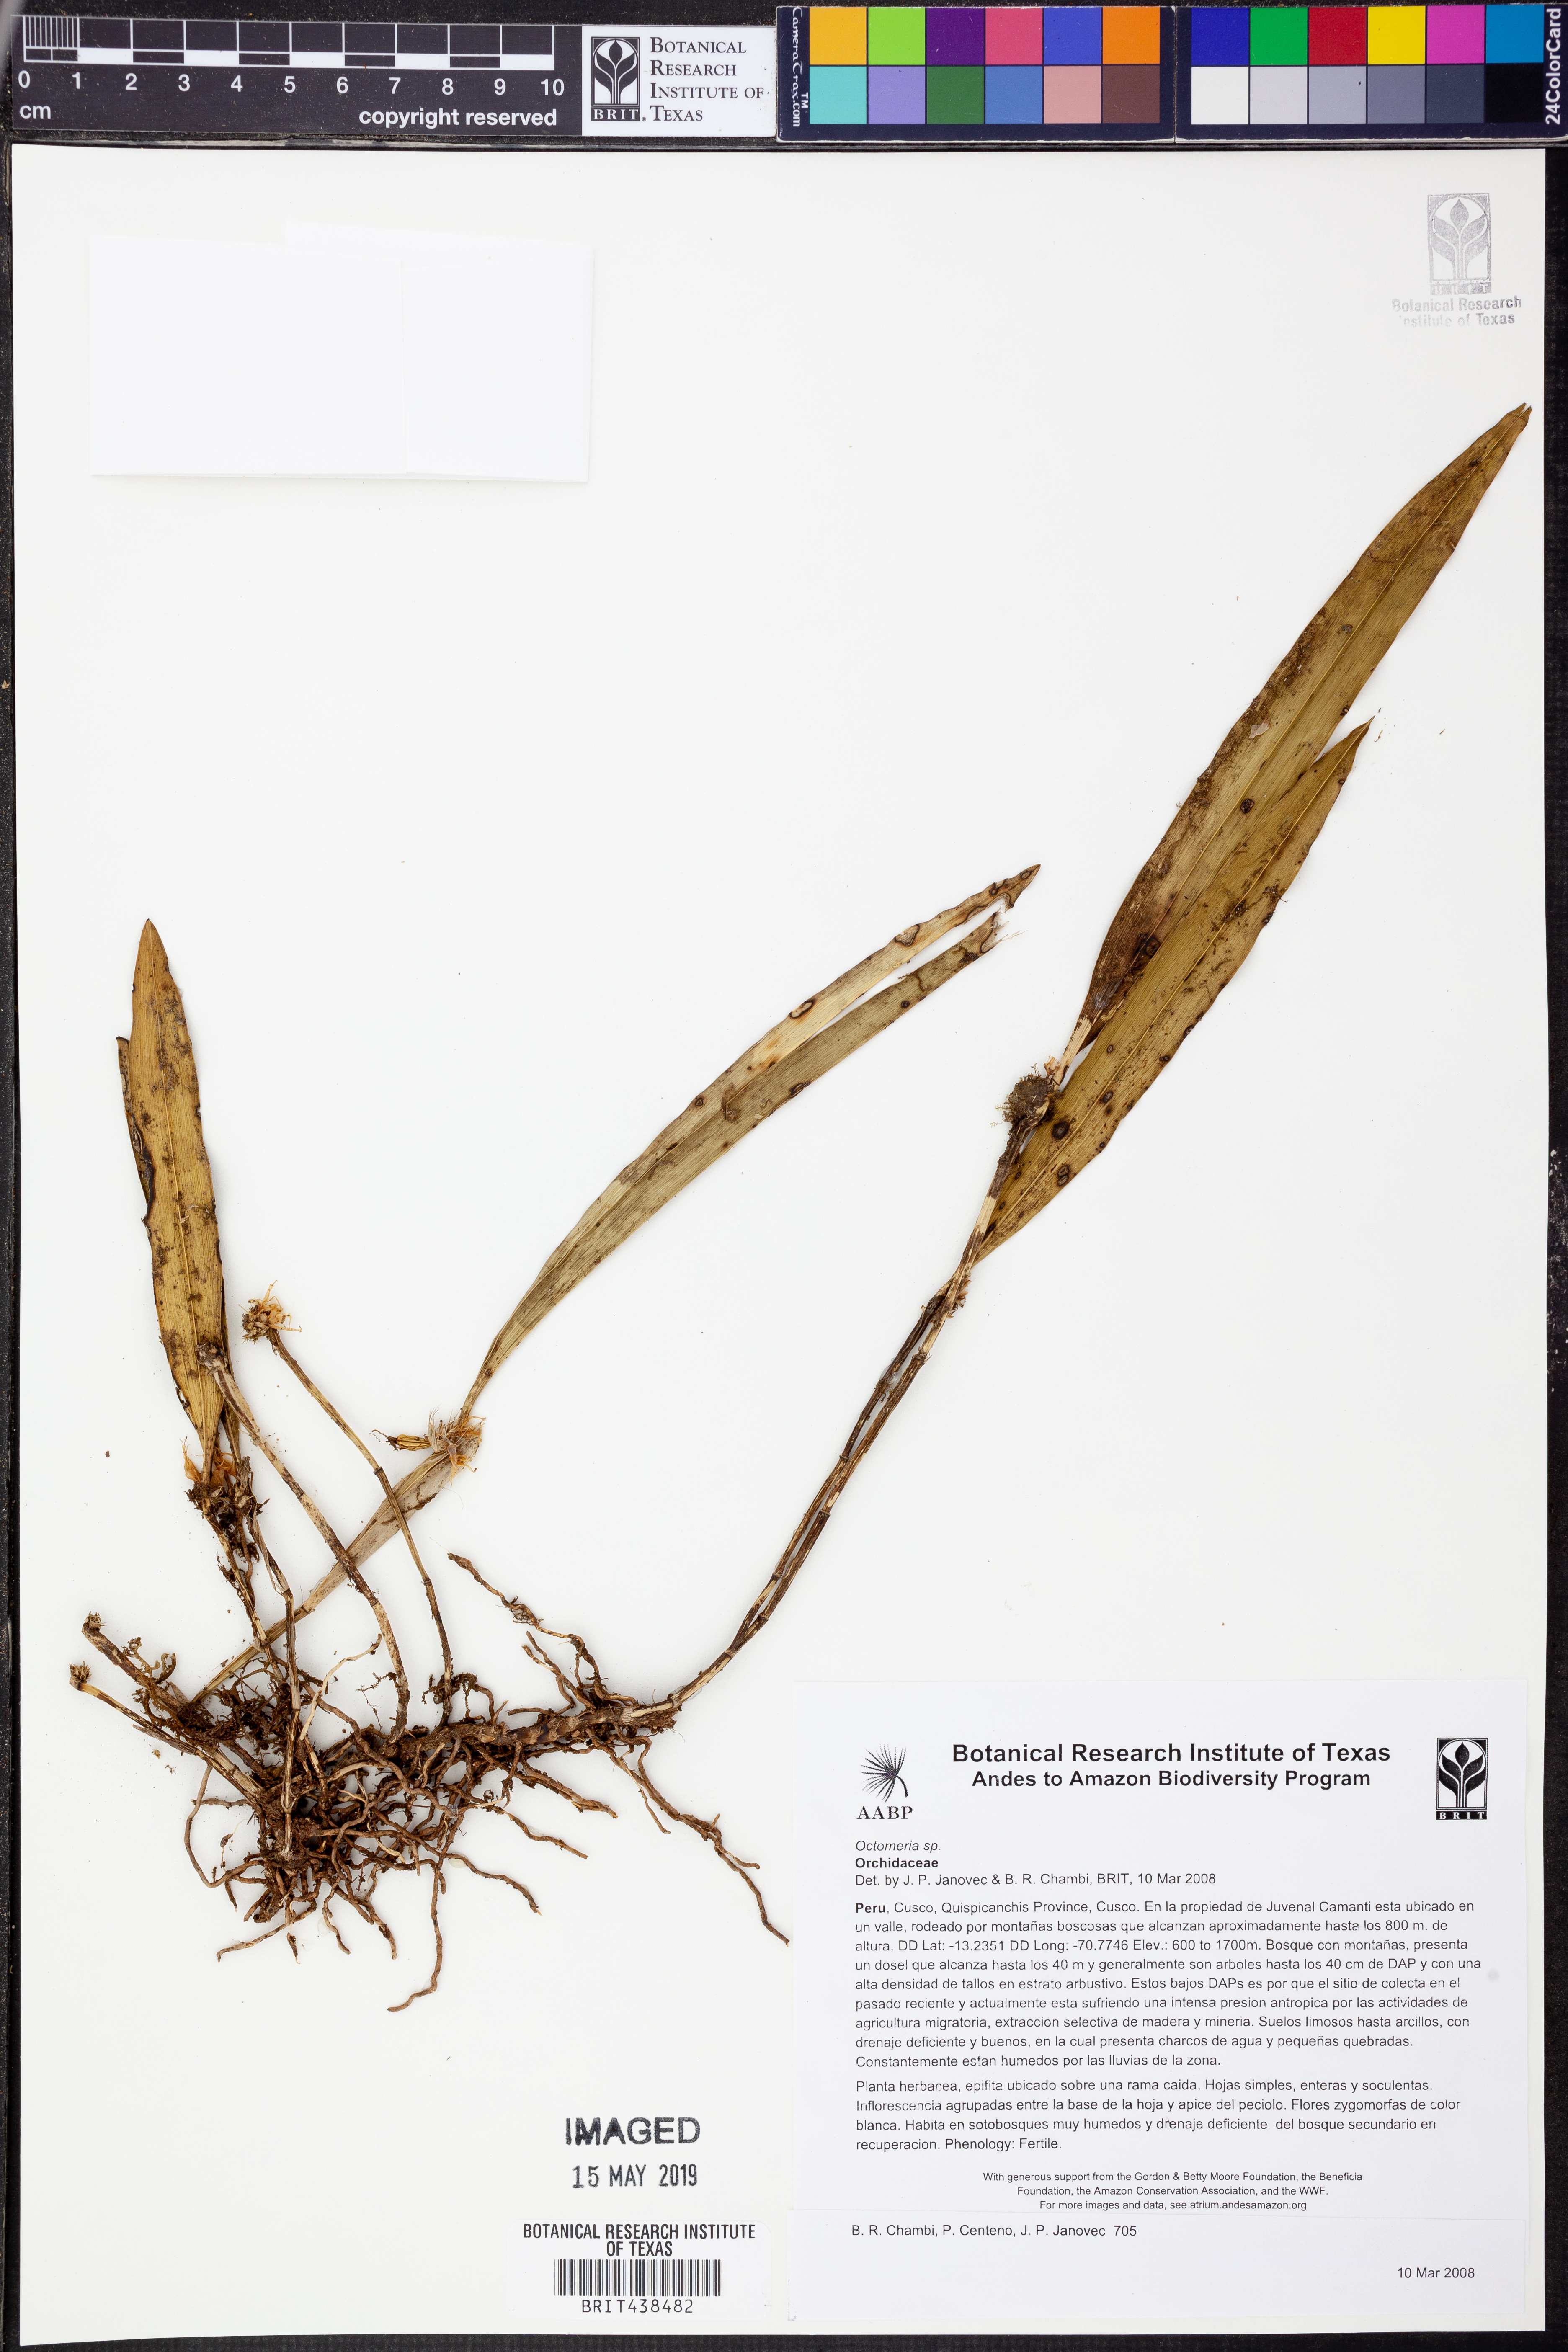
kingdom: Plantae
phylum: Tracheophyta
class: Liliopsida
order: Asparagales
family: Orchidaceae
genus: Octomeria
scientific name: Octomeria
